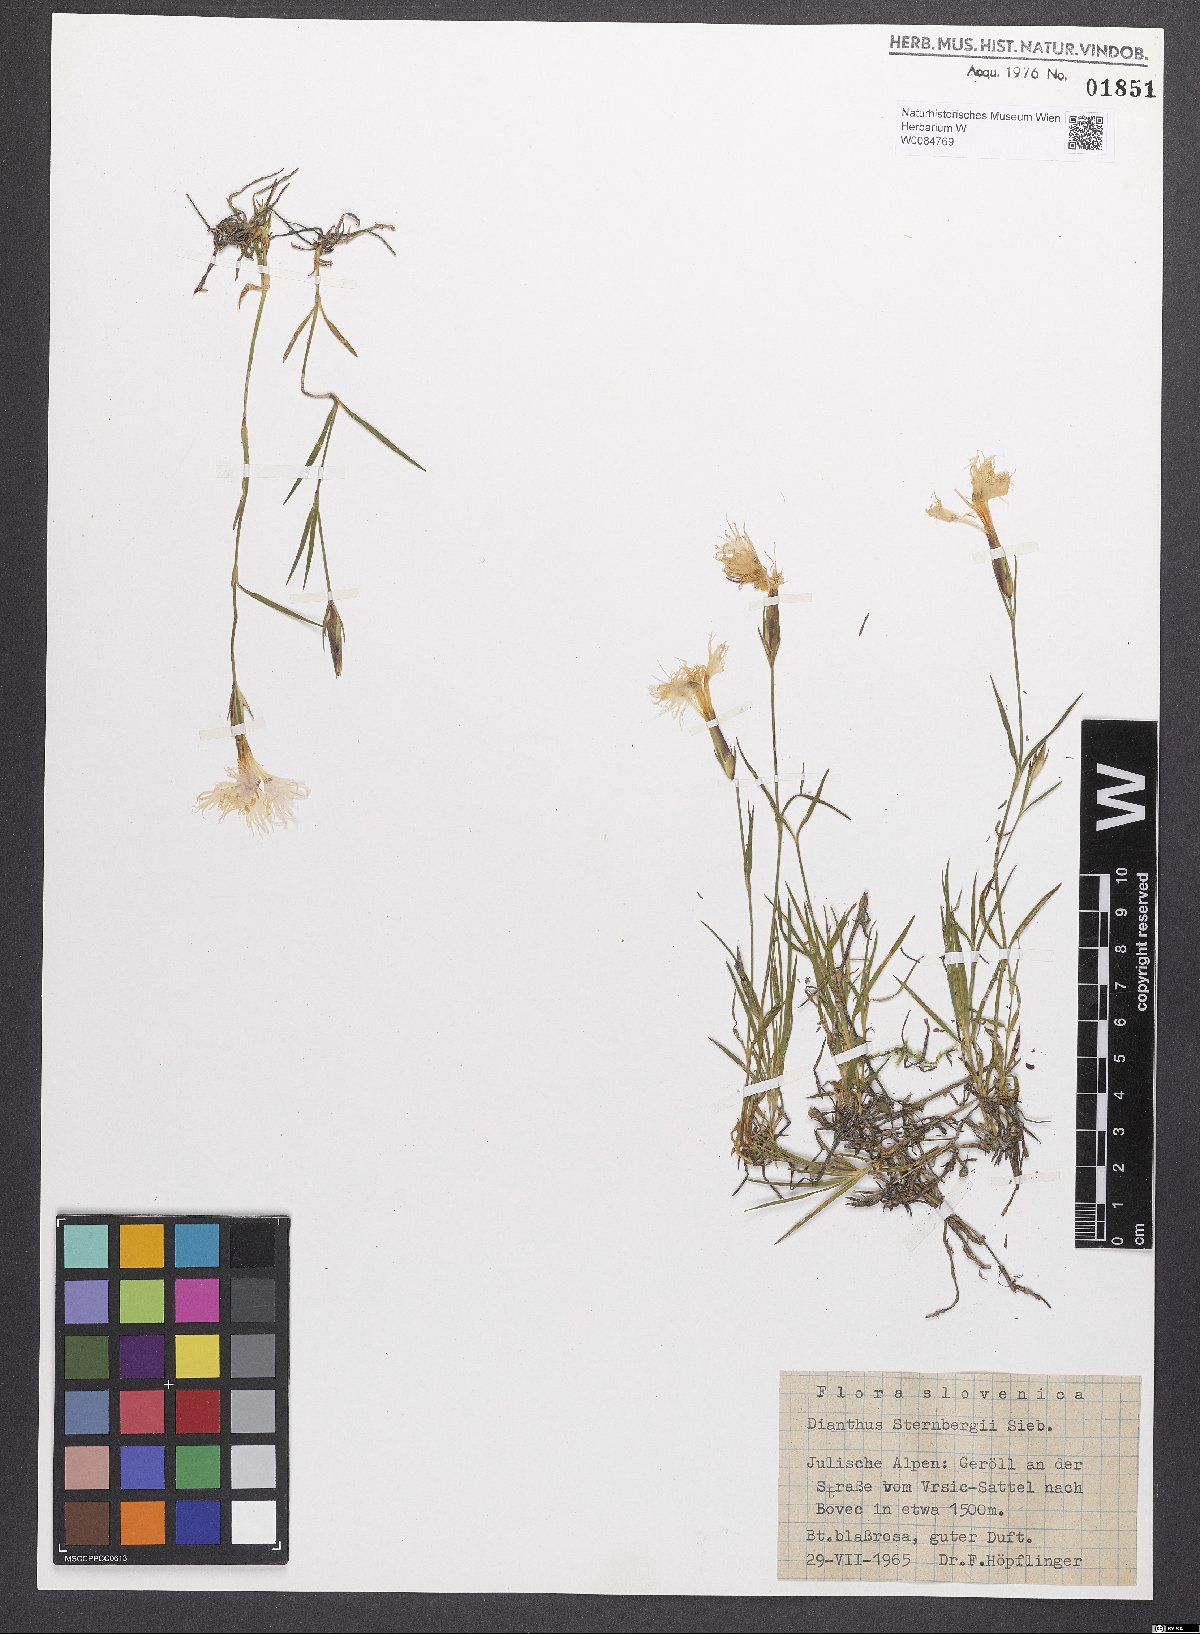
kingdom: Plantae
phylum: Tracheophyta
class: Magnoliopsida
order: Caryophyllales
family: Caryophyllaceae
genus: Dianthus
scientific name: Dianthus monspessulanus
